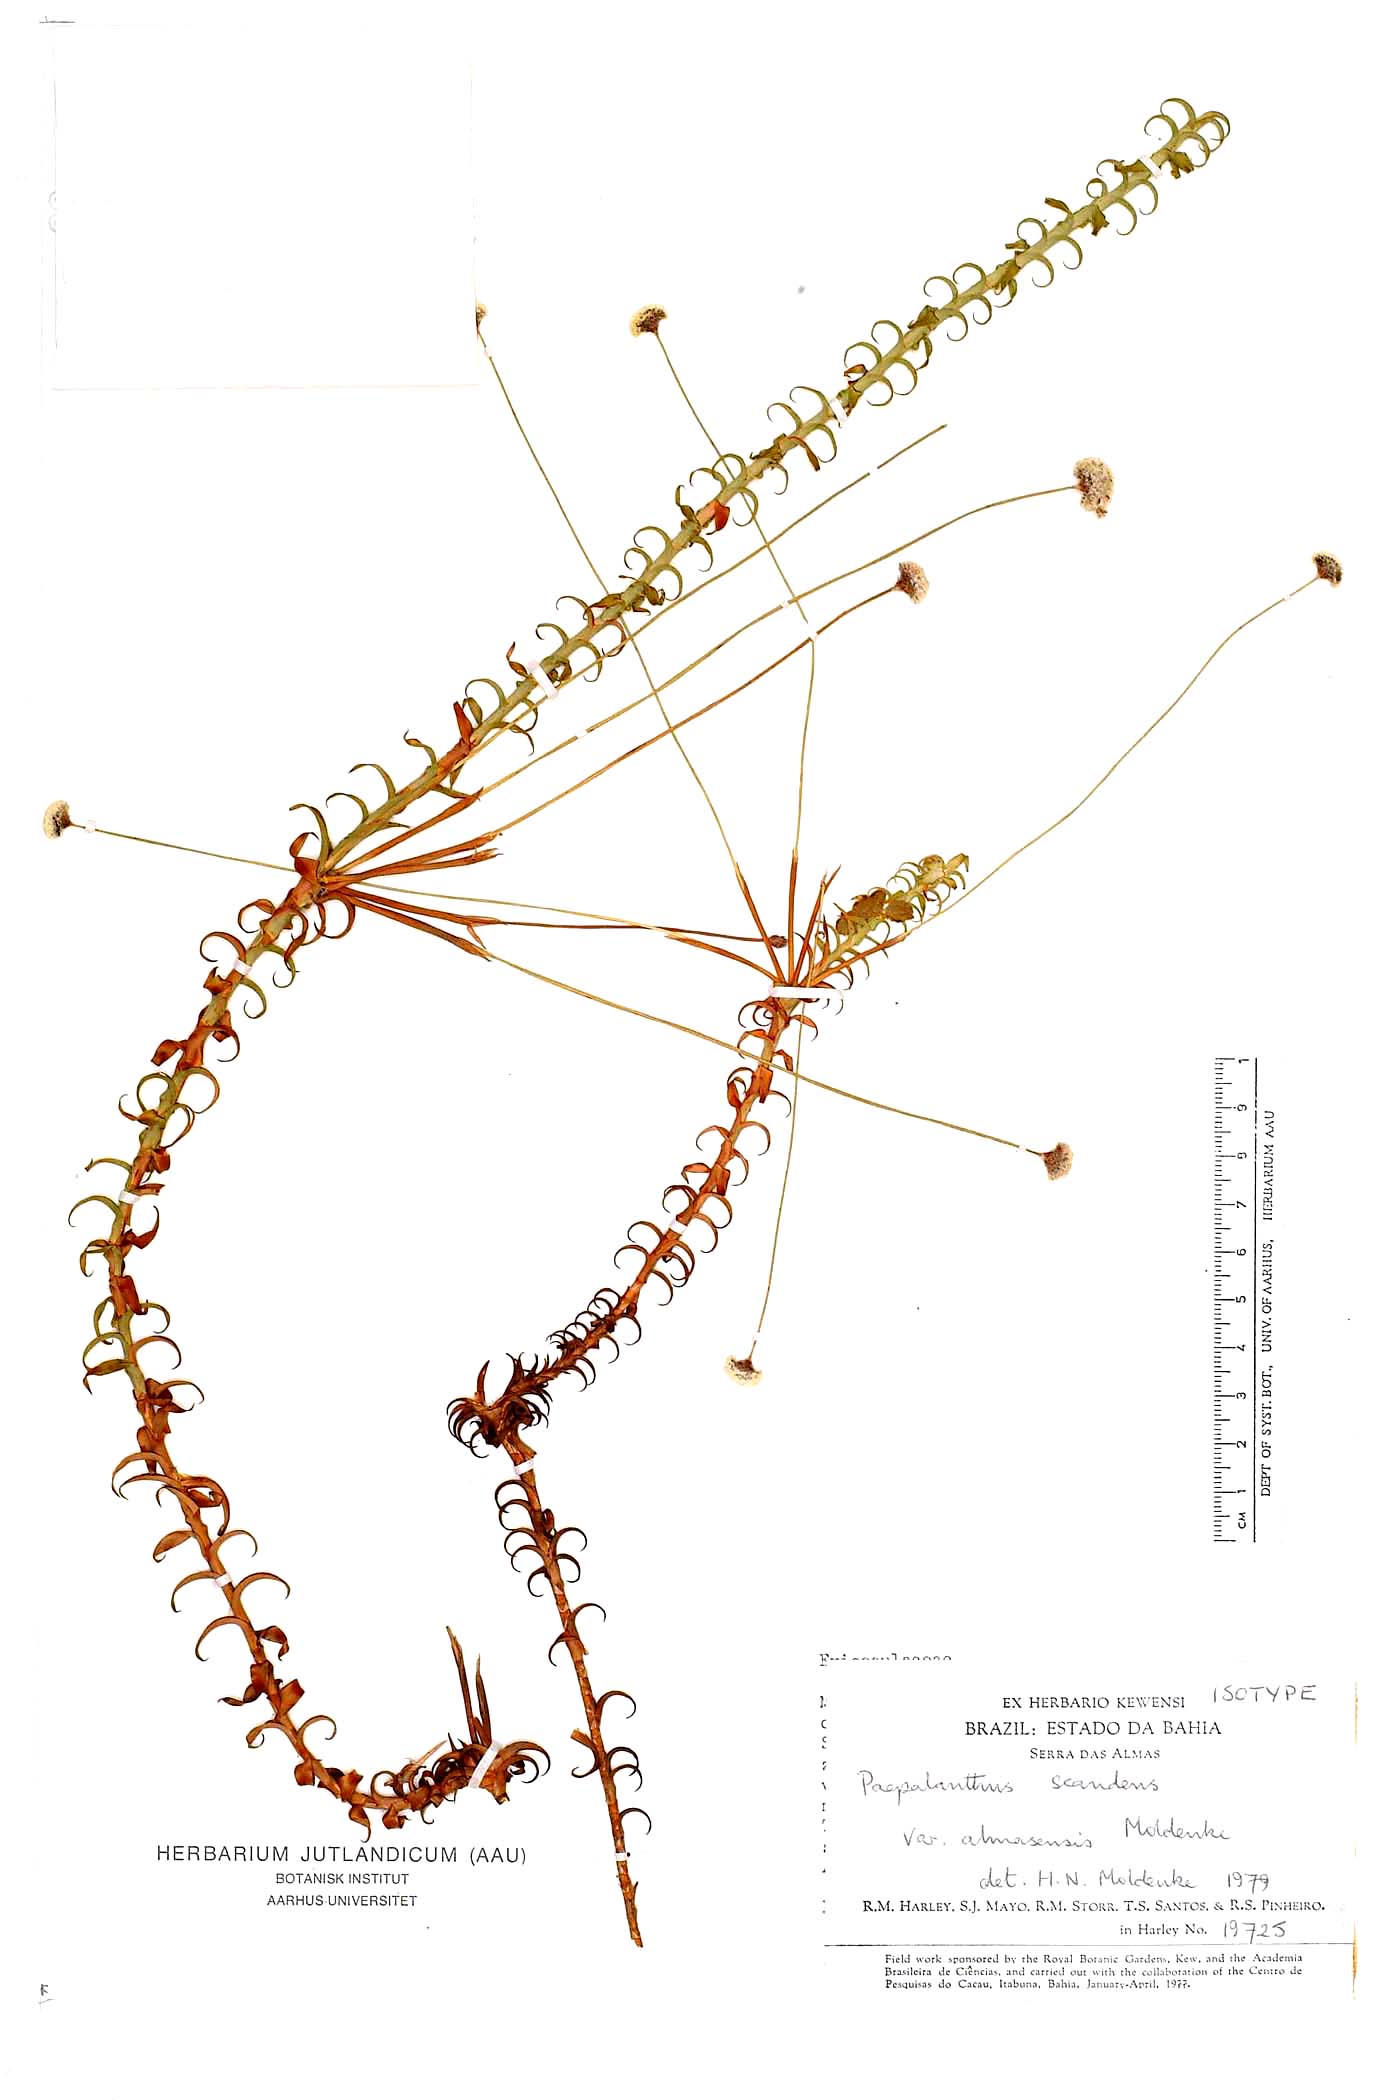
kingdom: Plantae
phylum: Tracheophyta
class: Liliopsida
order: Poales
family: Eriocaulaceae
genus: Paepalanthus
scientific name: Paepalanthus stannardii
